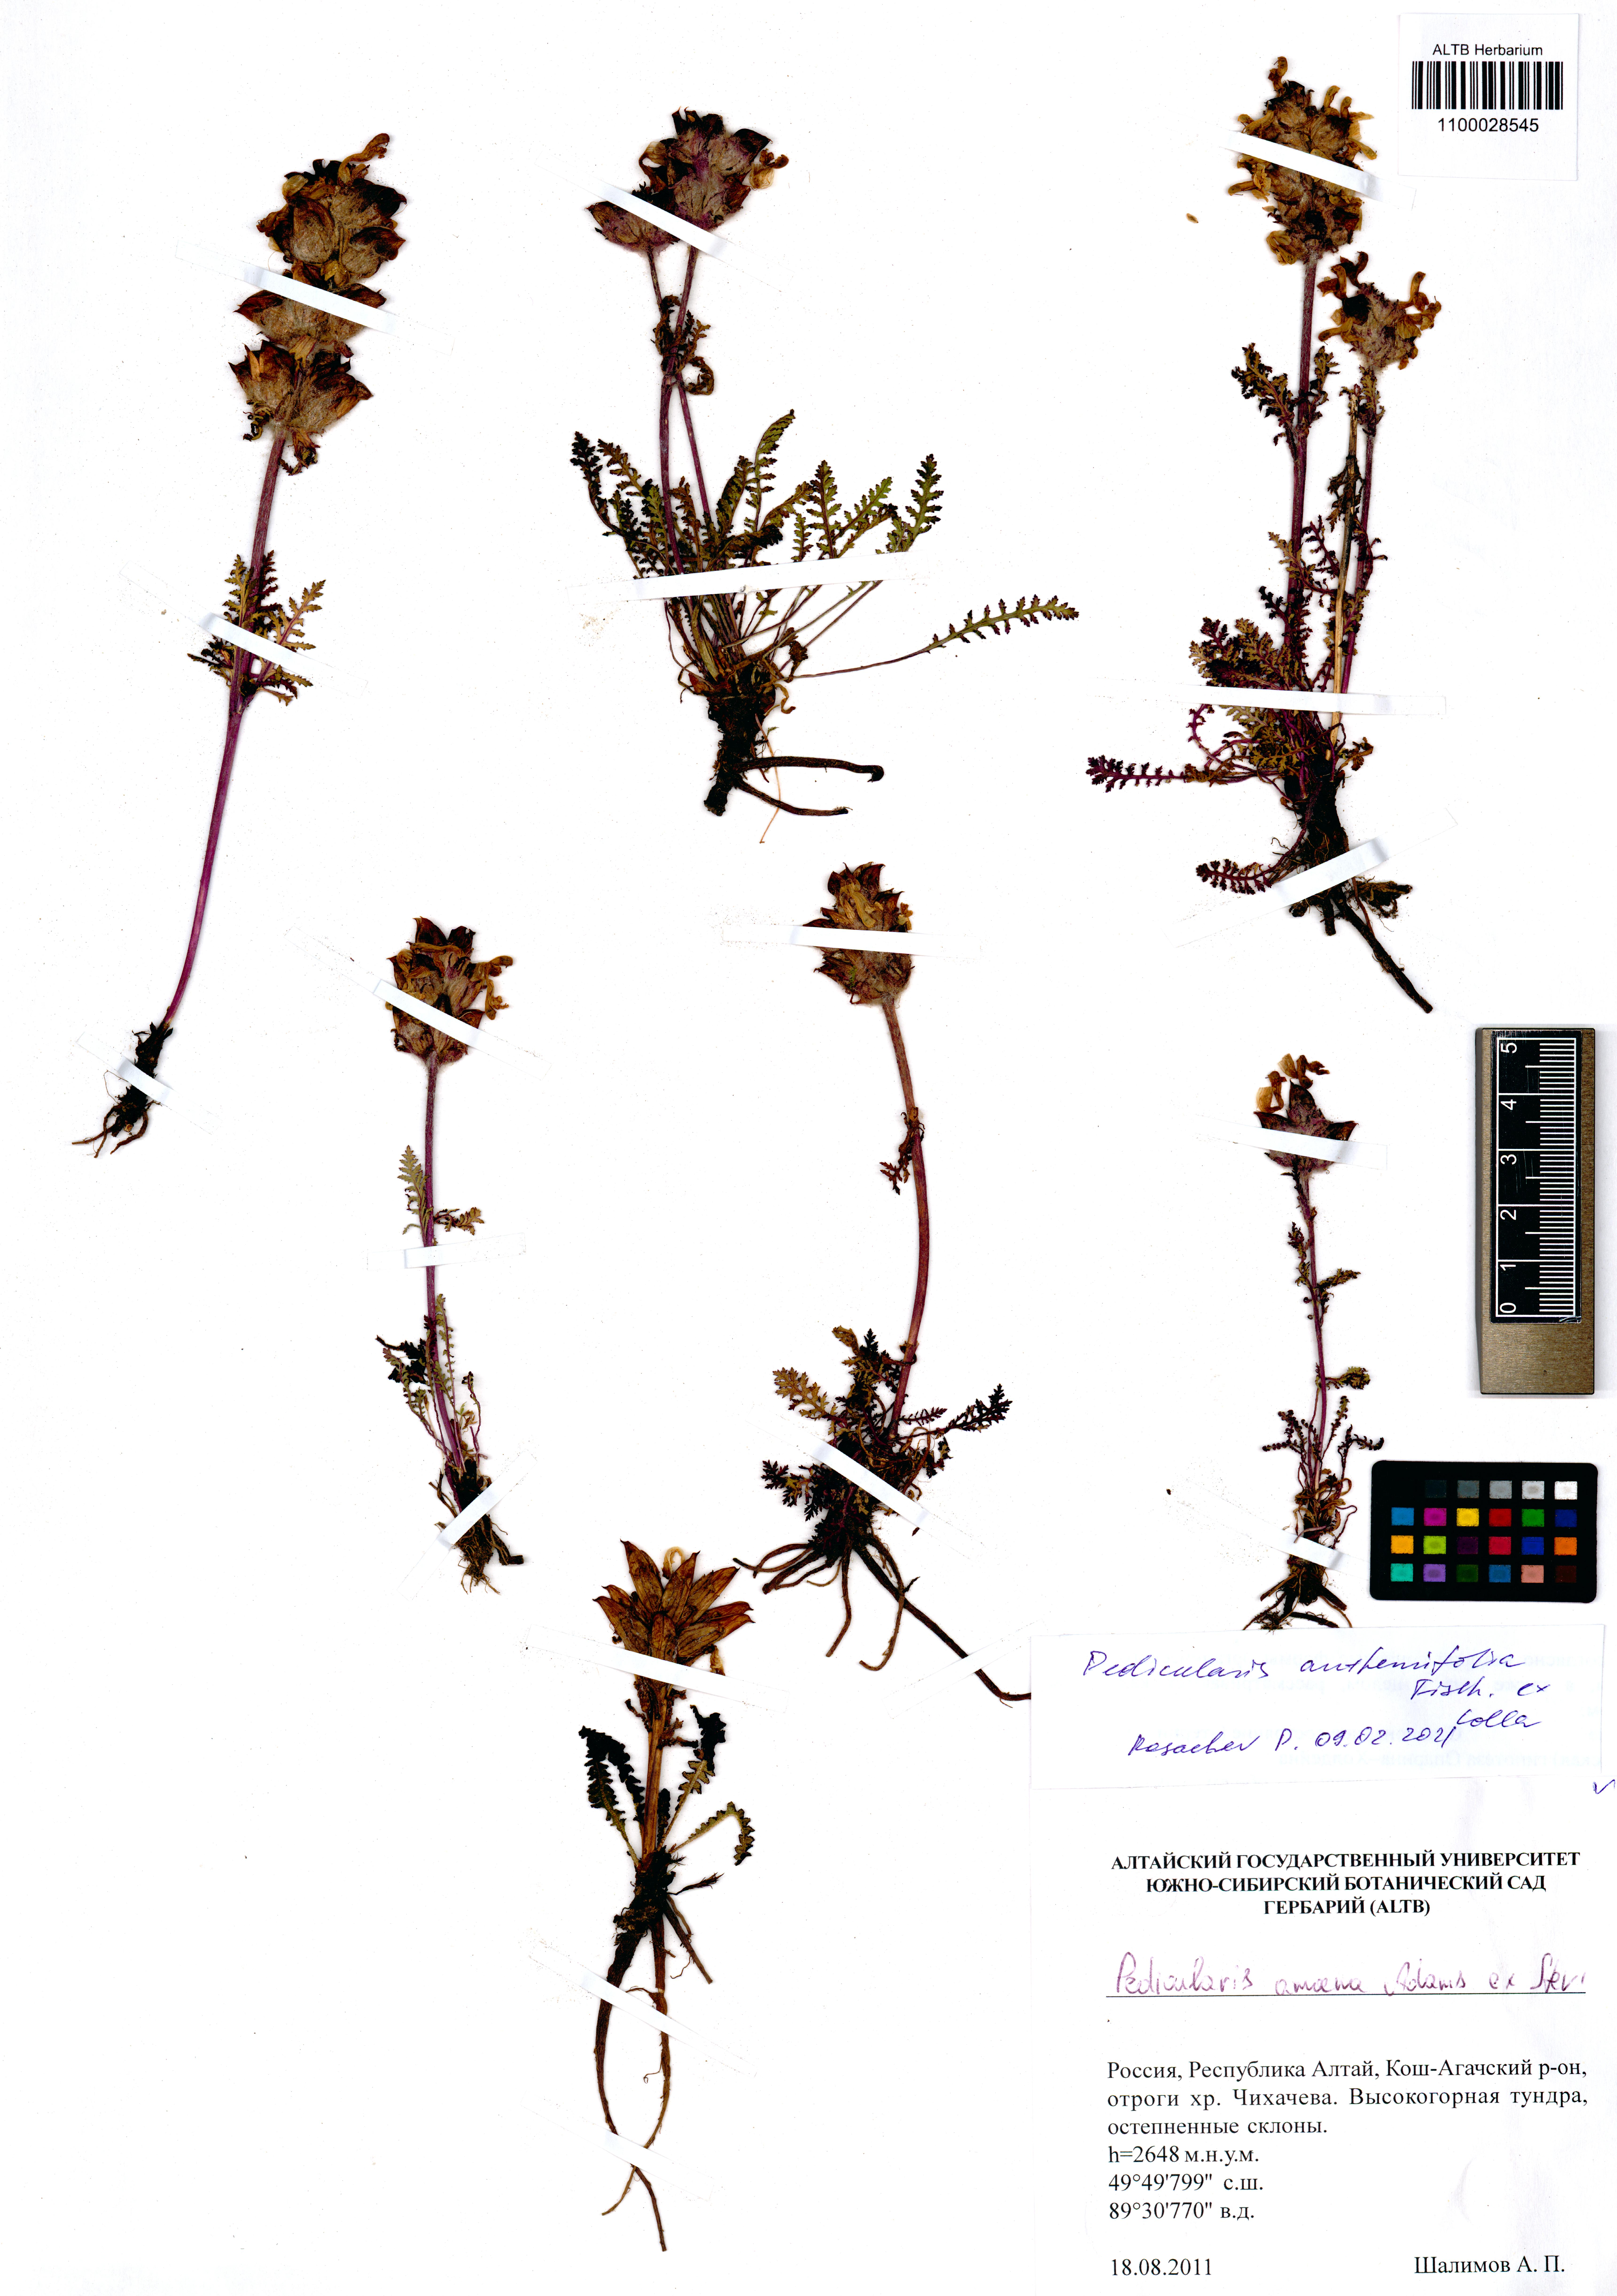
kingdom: Plantae
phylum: Tracheophyta
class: Magnoliopsida
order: Lamiales
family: Orobanchaceae
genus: Pedicularis
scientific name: Pedicularis anthemifolia
